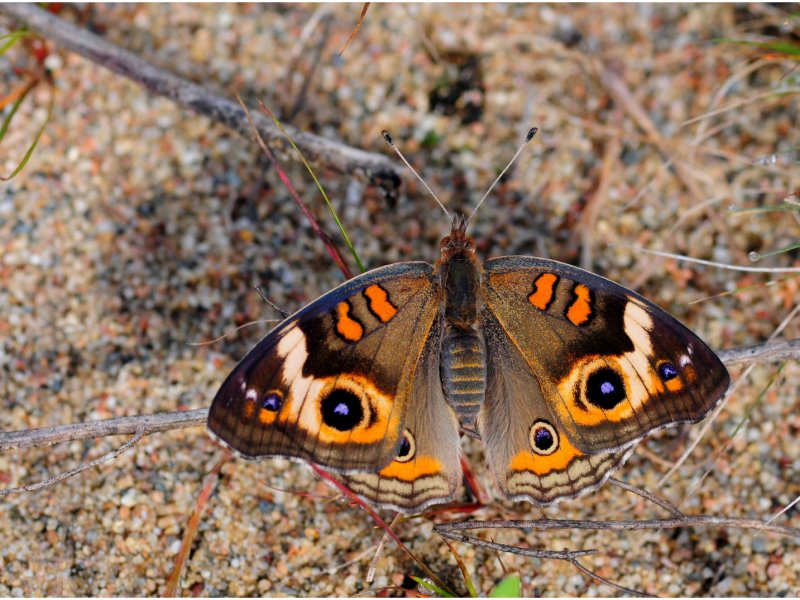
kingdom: Animalia
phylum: Arthropoda
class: Insecta
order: Lepidoptera
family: Nymphalidae
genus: Junonia
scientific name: Junonia coenia
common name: Common Buckeye
